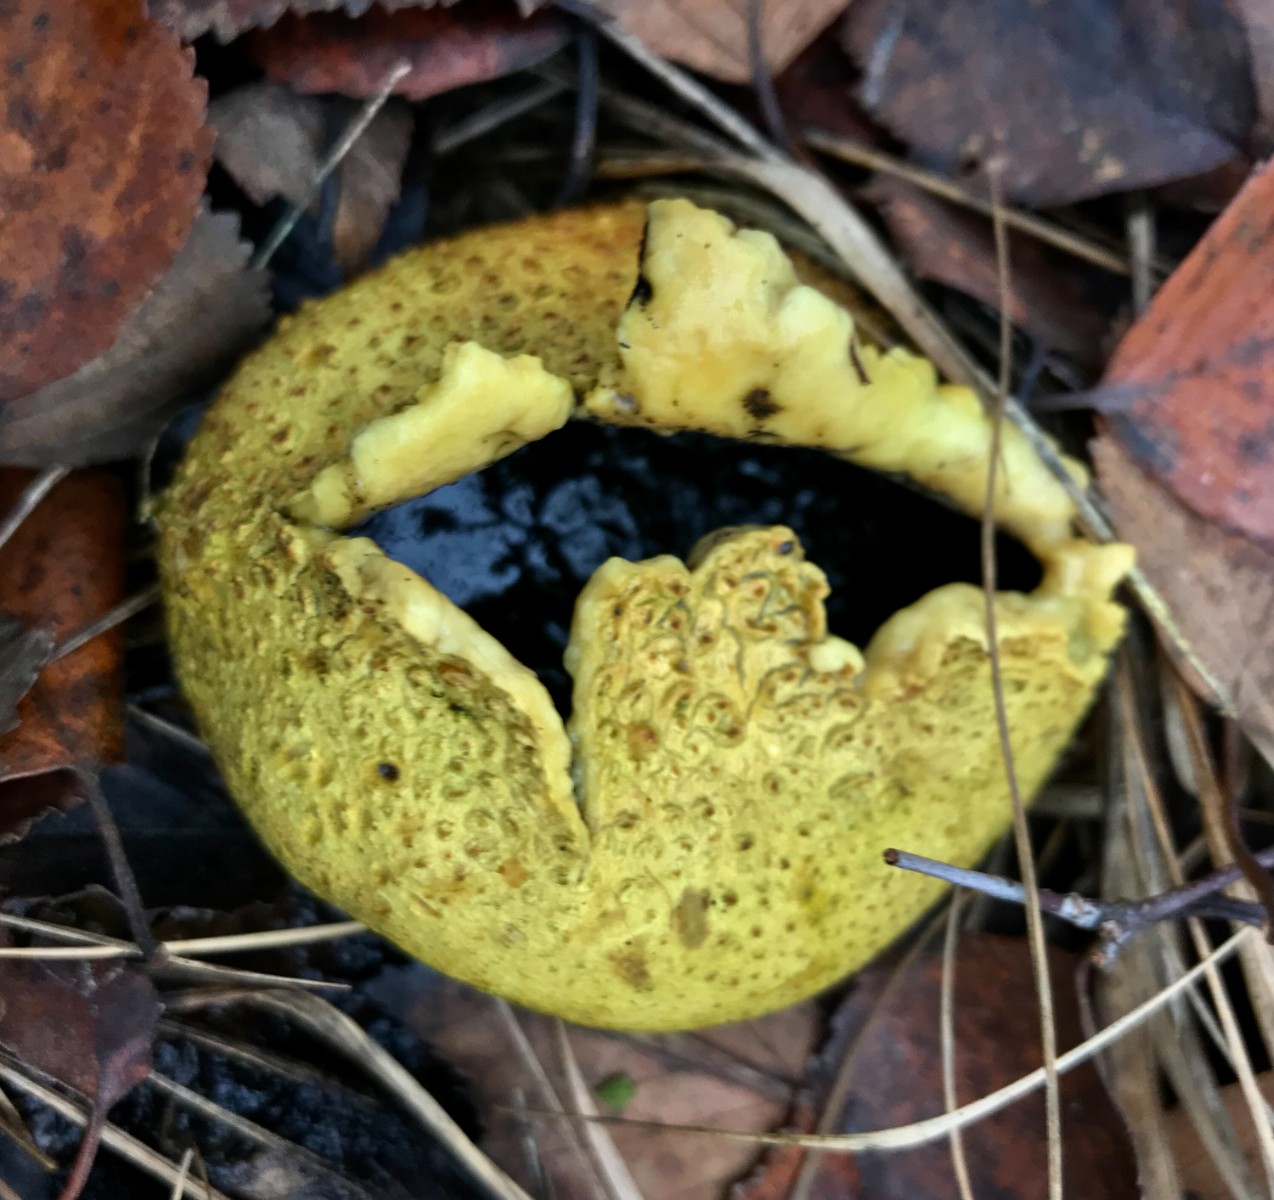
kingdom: Fungi
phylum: Basidiomycota
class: Agaricomycetes
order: Boletales
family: Sclerodermataceae
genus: Scleroderma
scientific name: Scleroderma citrinum
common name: almindelig bruskbold
